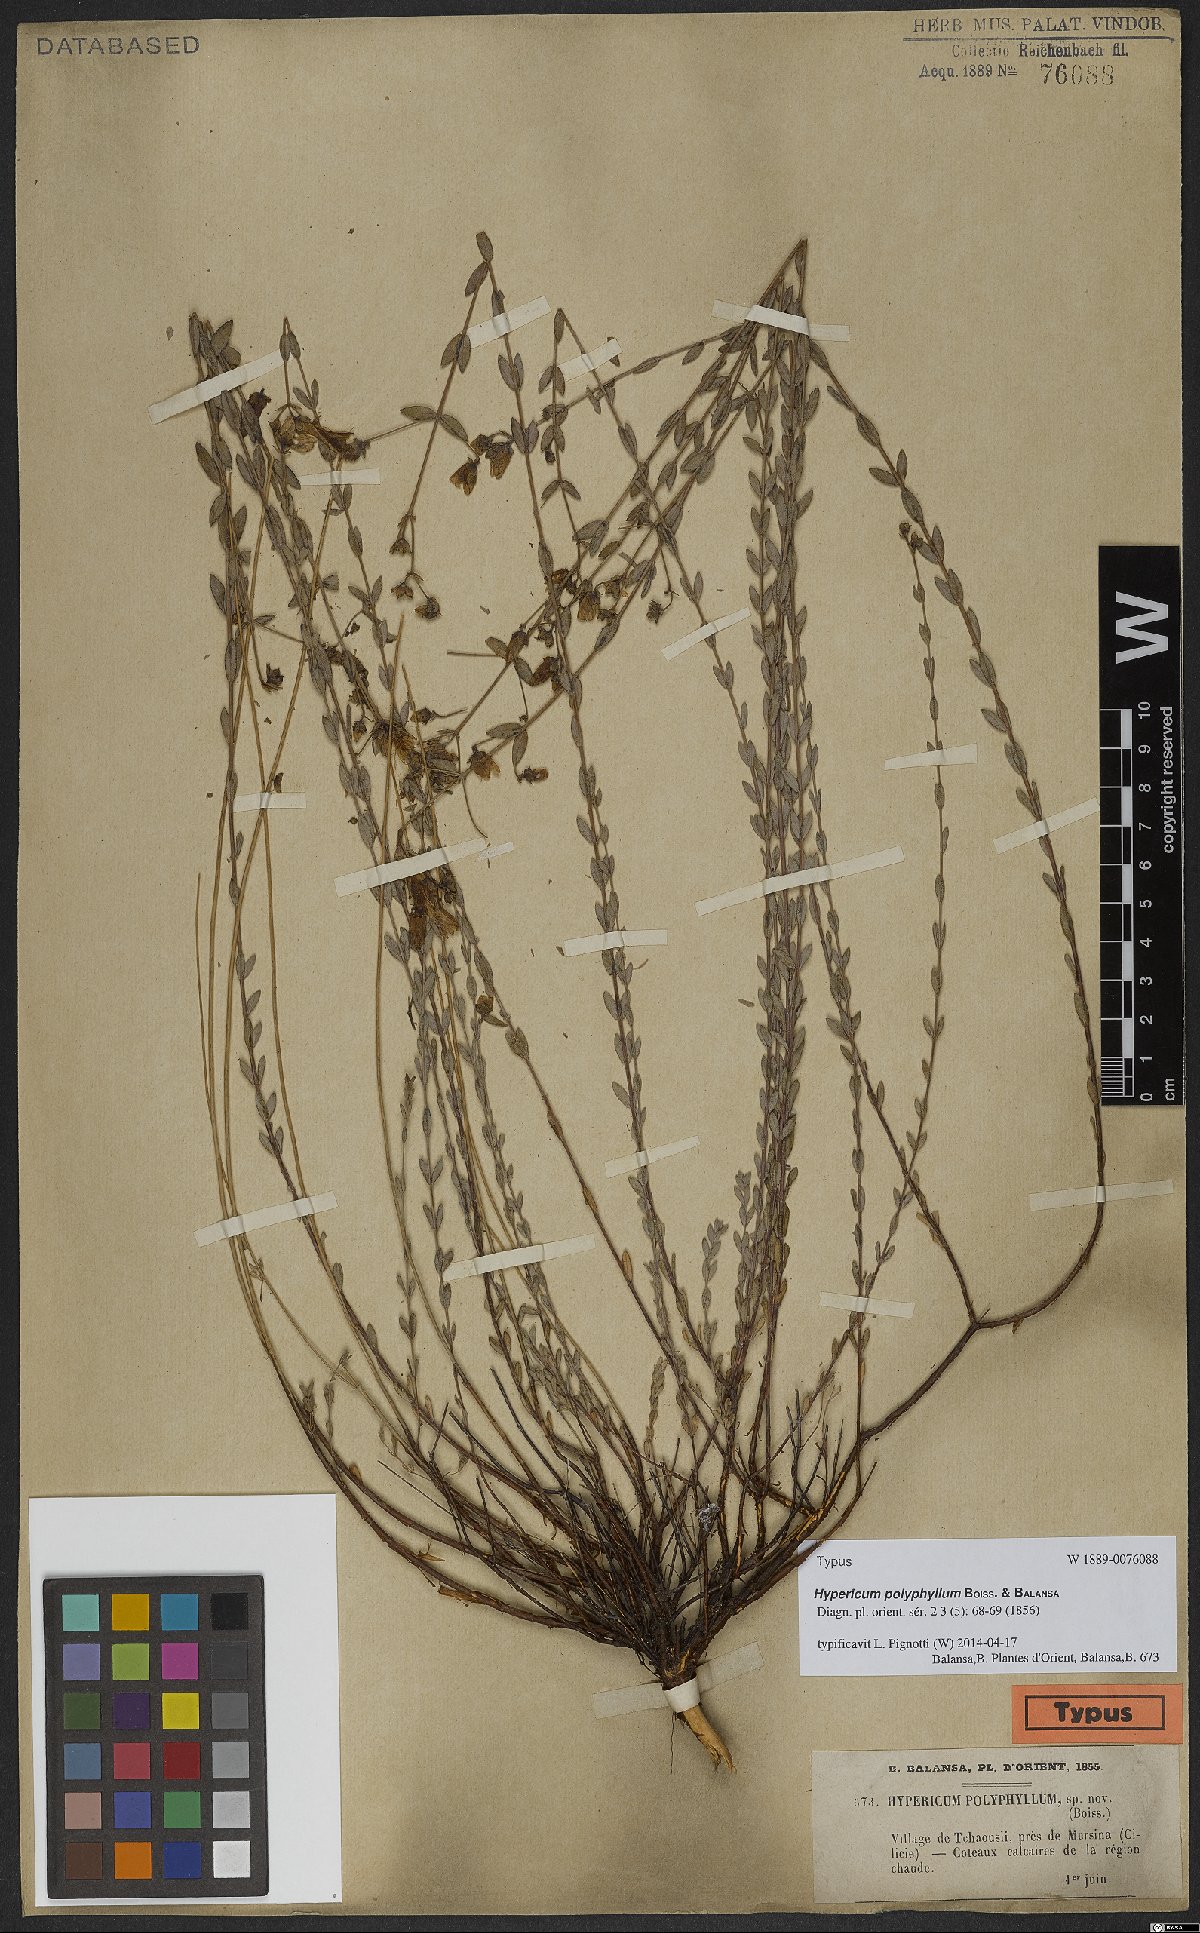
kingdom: Plantae
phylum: Tracheophyta
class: Magnoliopsida
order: Malpighiales
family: Hypericaceae
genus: Hypericum
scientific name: Hypericum polyphyllum
